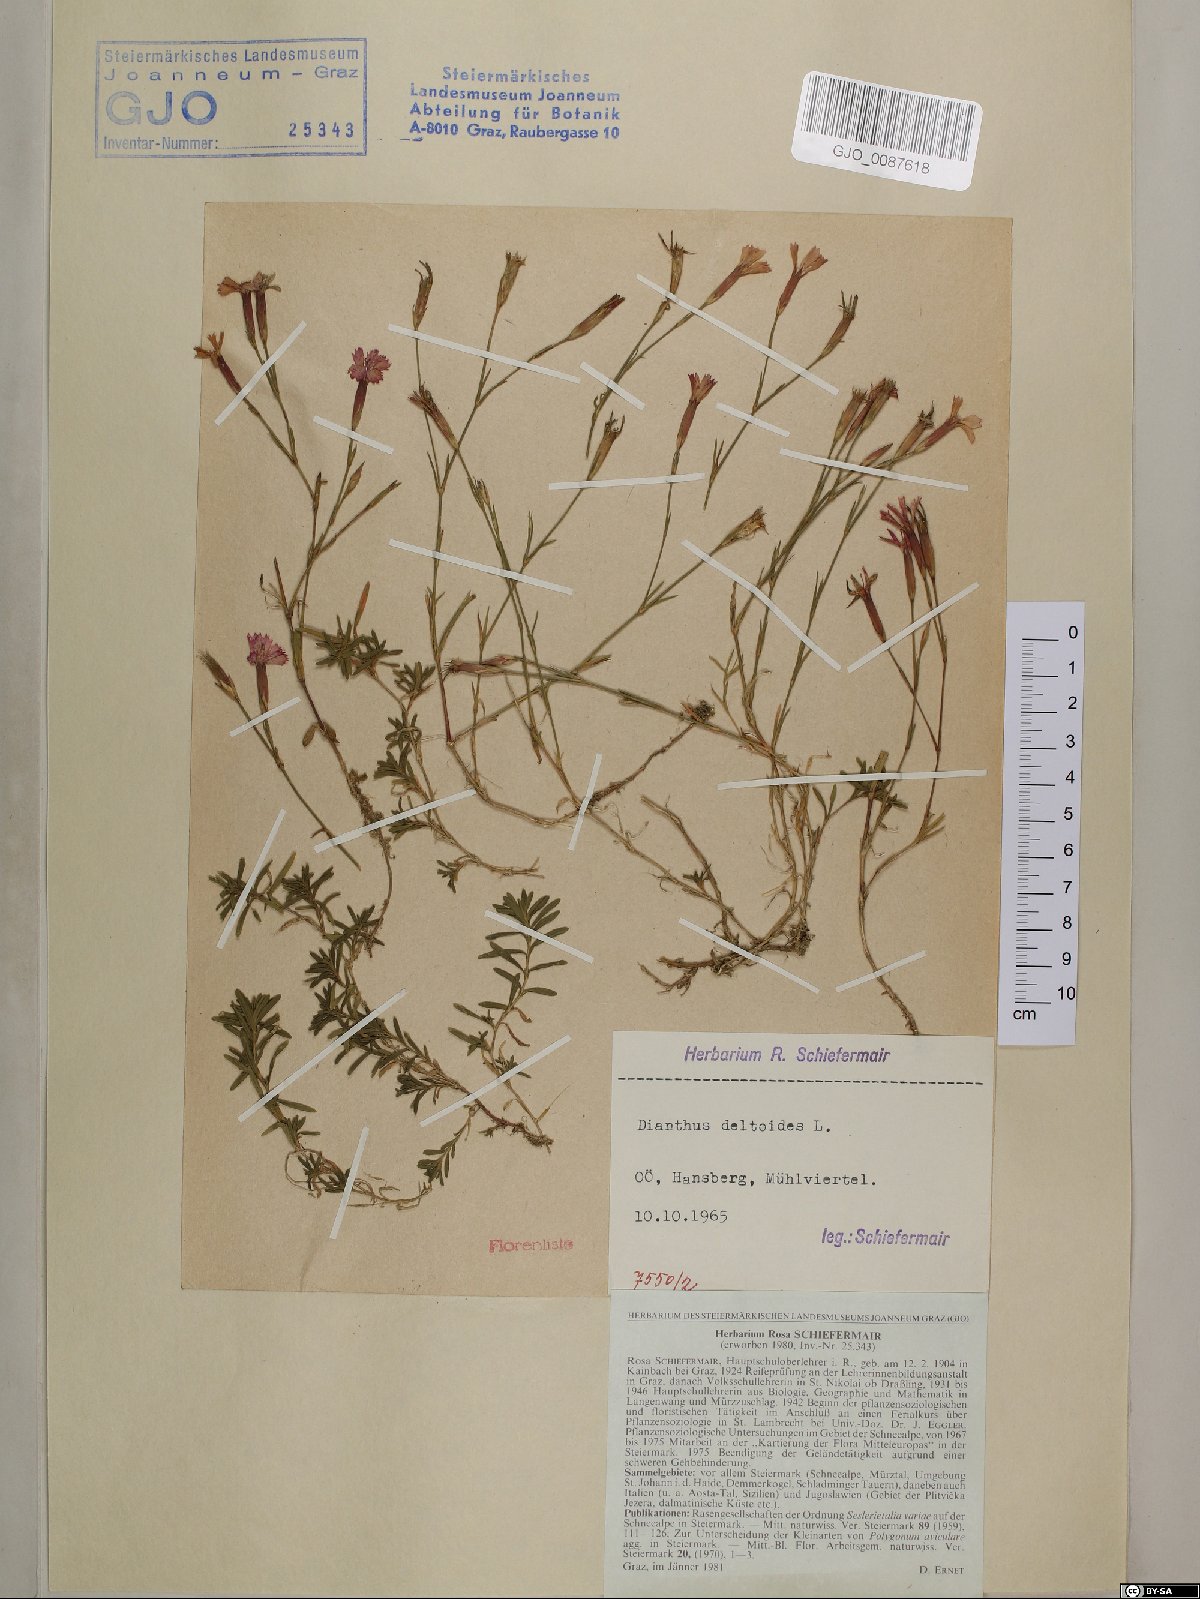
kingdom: Plantae
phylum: Tracheophyta
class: Magnoliopsida
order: Caryophyllales
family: Caryophyllaceae
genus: Dianthus
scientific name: Dianthus deltoides
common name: Maiden pink
